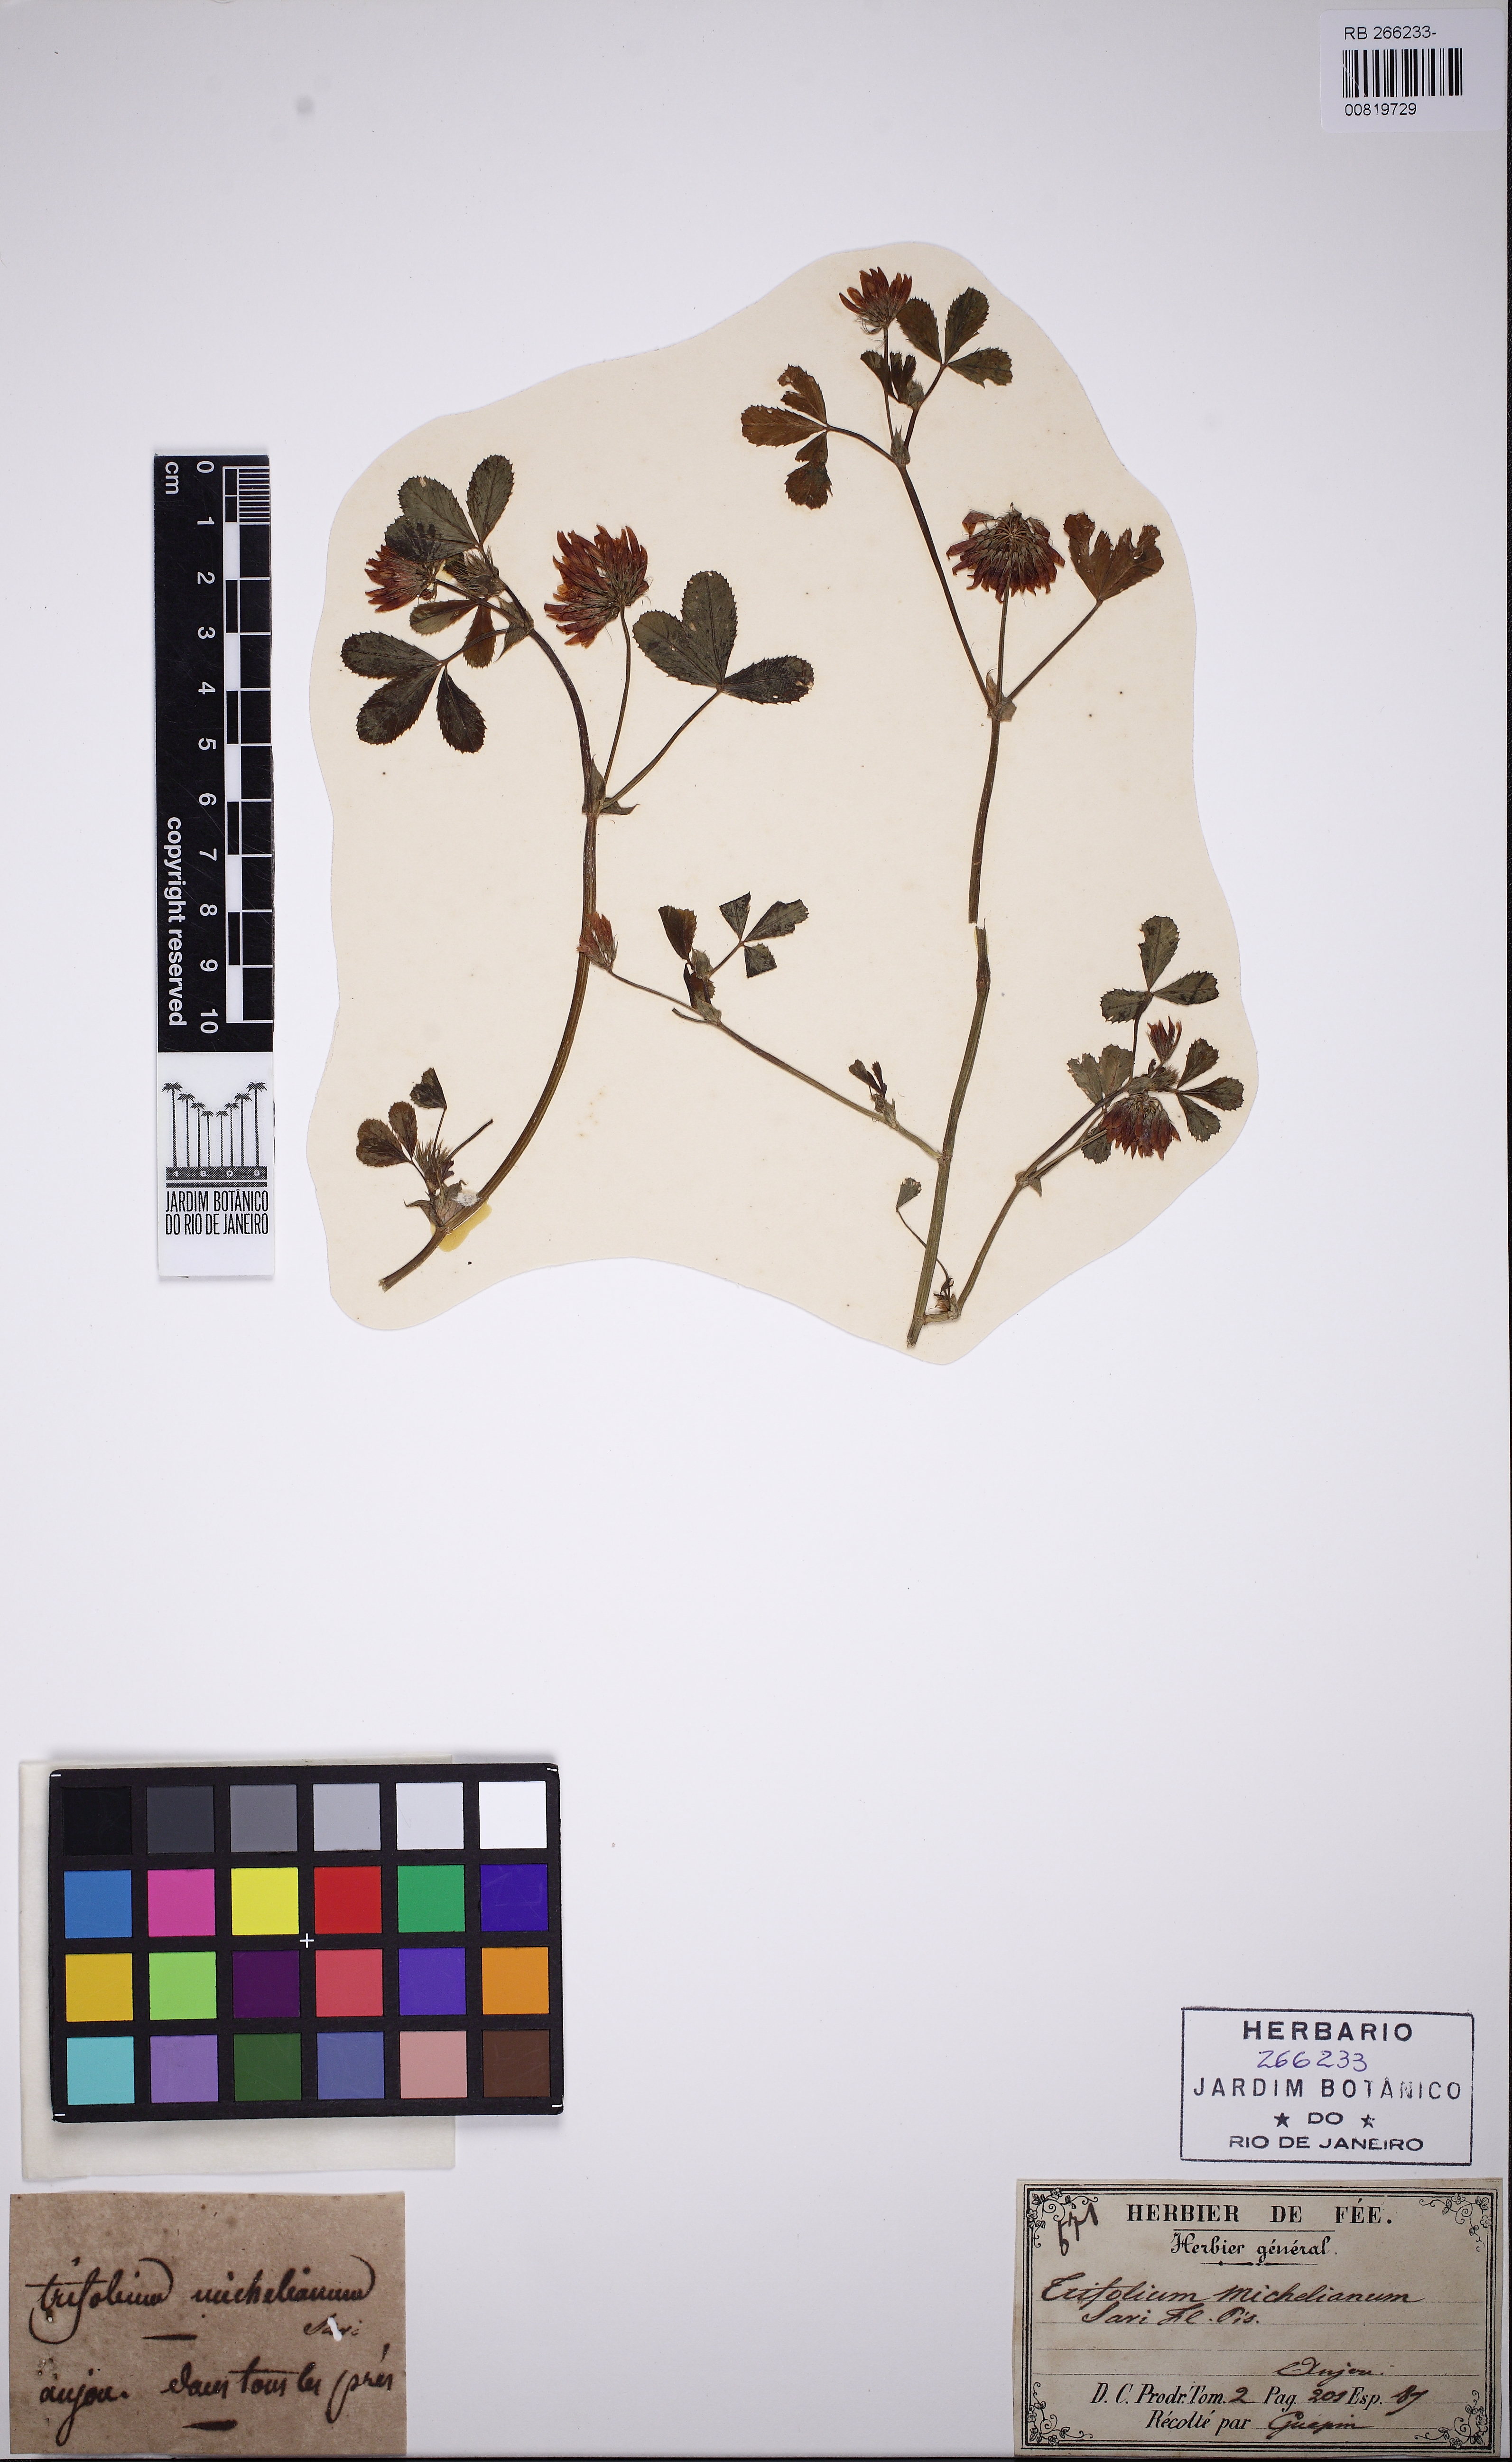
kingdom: Plantae
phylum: Tracheophyta
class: Magnoliopsida
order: Fabales
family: Fabaceae
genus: Trifolium
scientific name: Trifolium michelianum
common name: Bigflower clover
